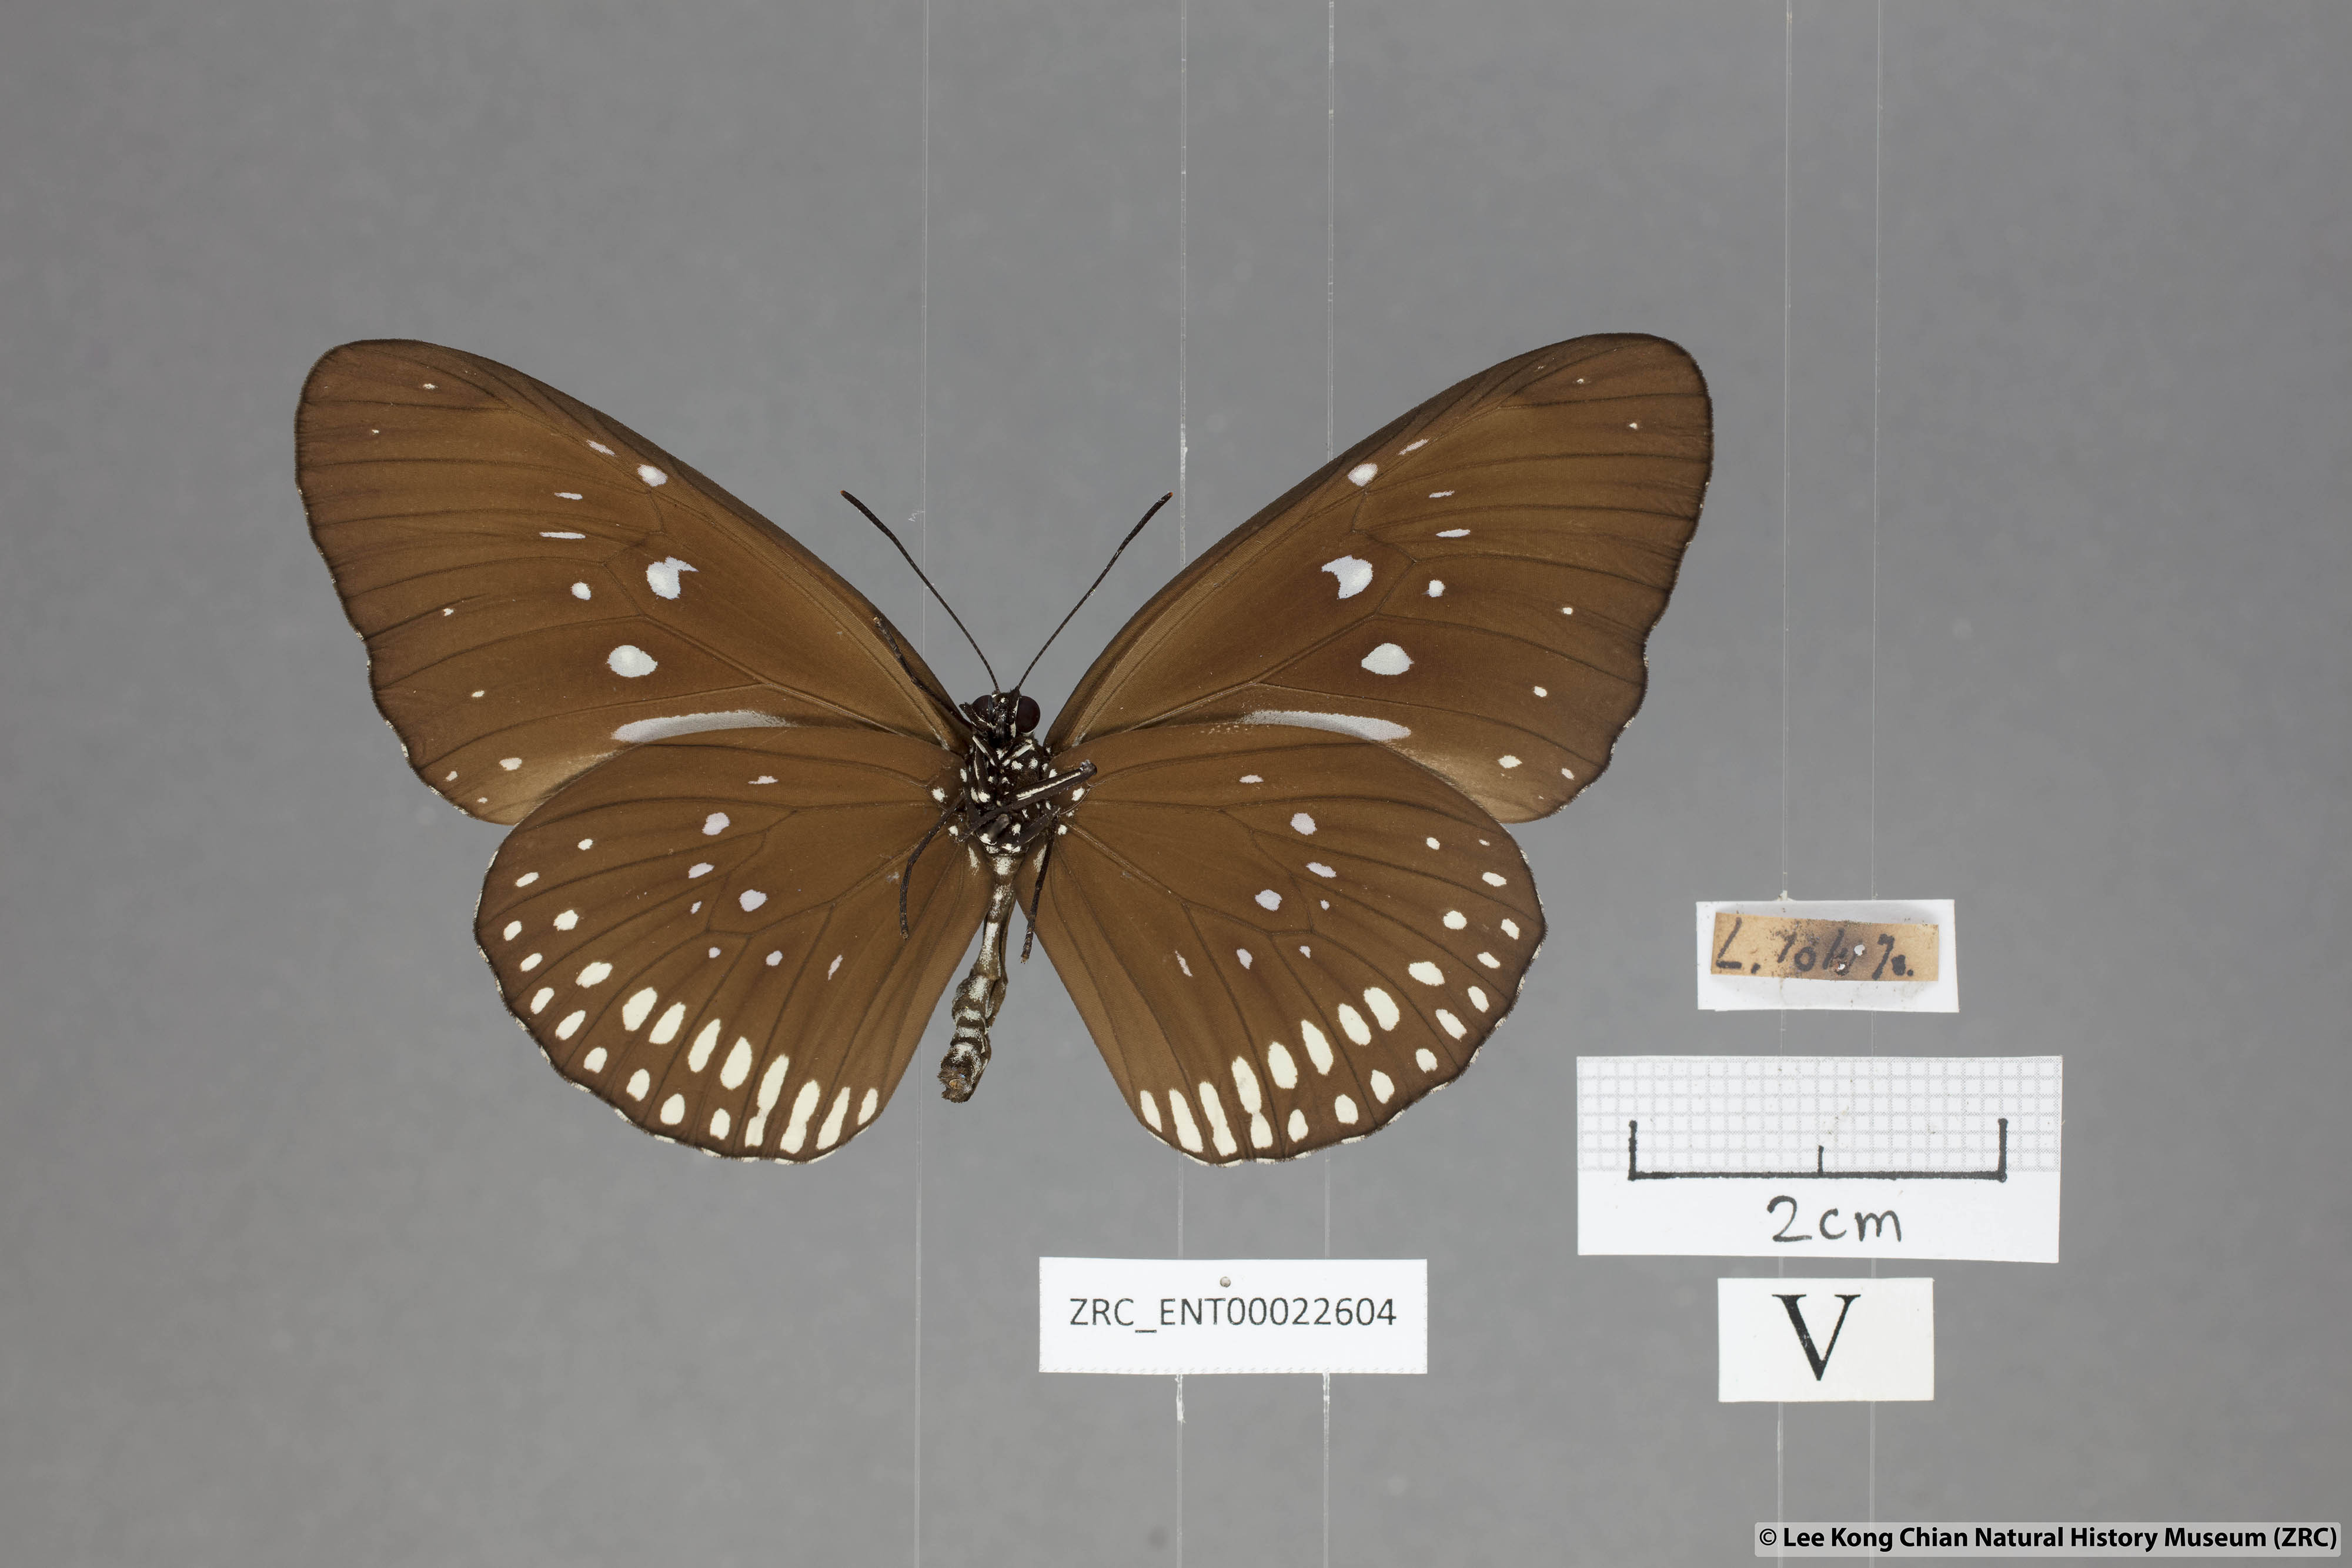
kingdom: Animalia
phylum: Arthropoda
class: Insecta
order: Lepidoptera
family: Nymphalidae
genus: Euploea
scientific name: Euploea modesta
